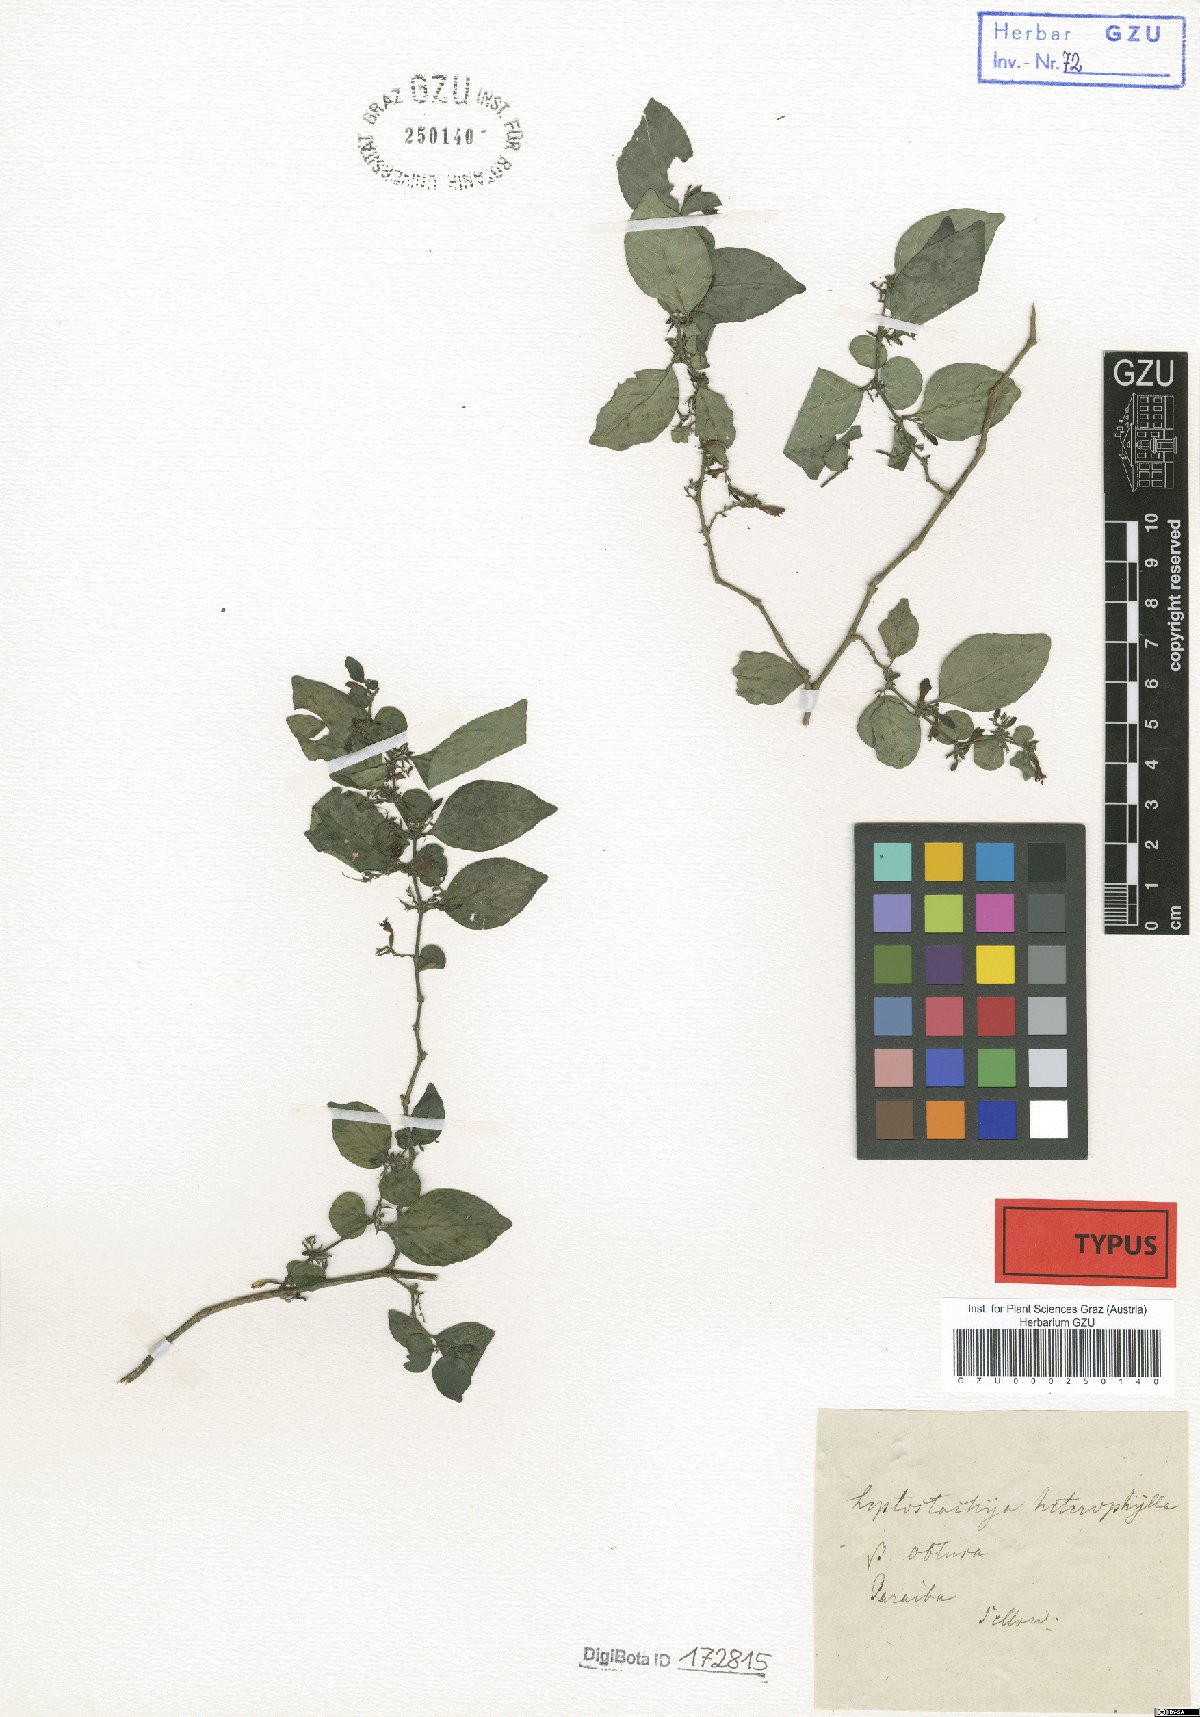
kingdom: Plantae
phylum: Tracheophyta
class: Magnoliopsida
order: Lamiales
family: Acanthaceae
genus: Justicia
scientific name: Justicia parahyba
